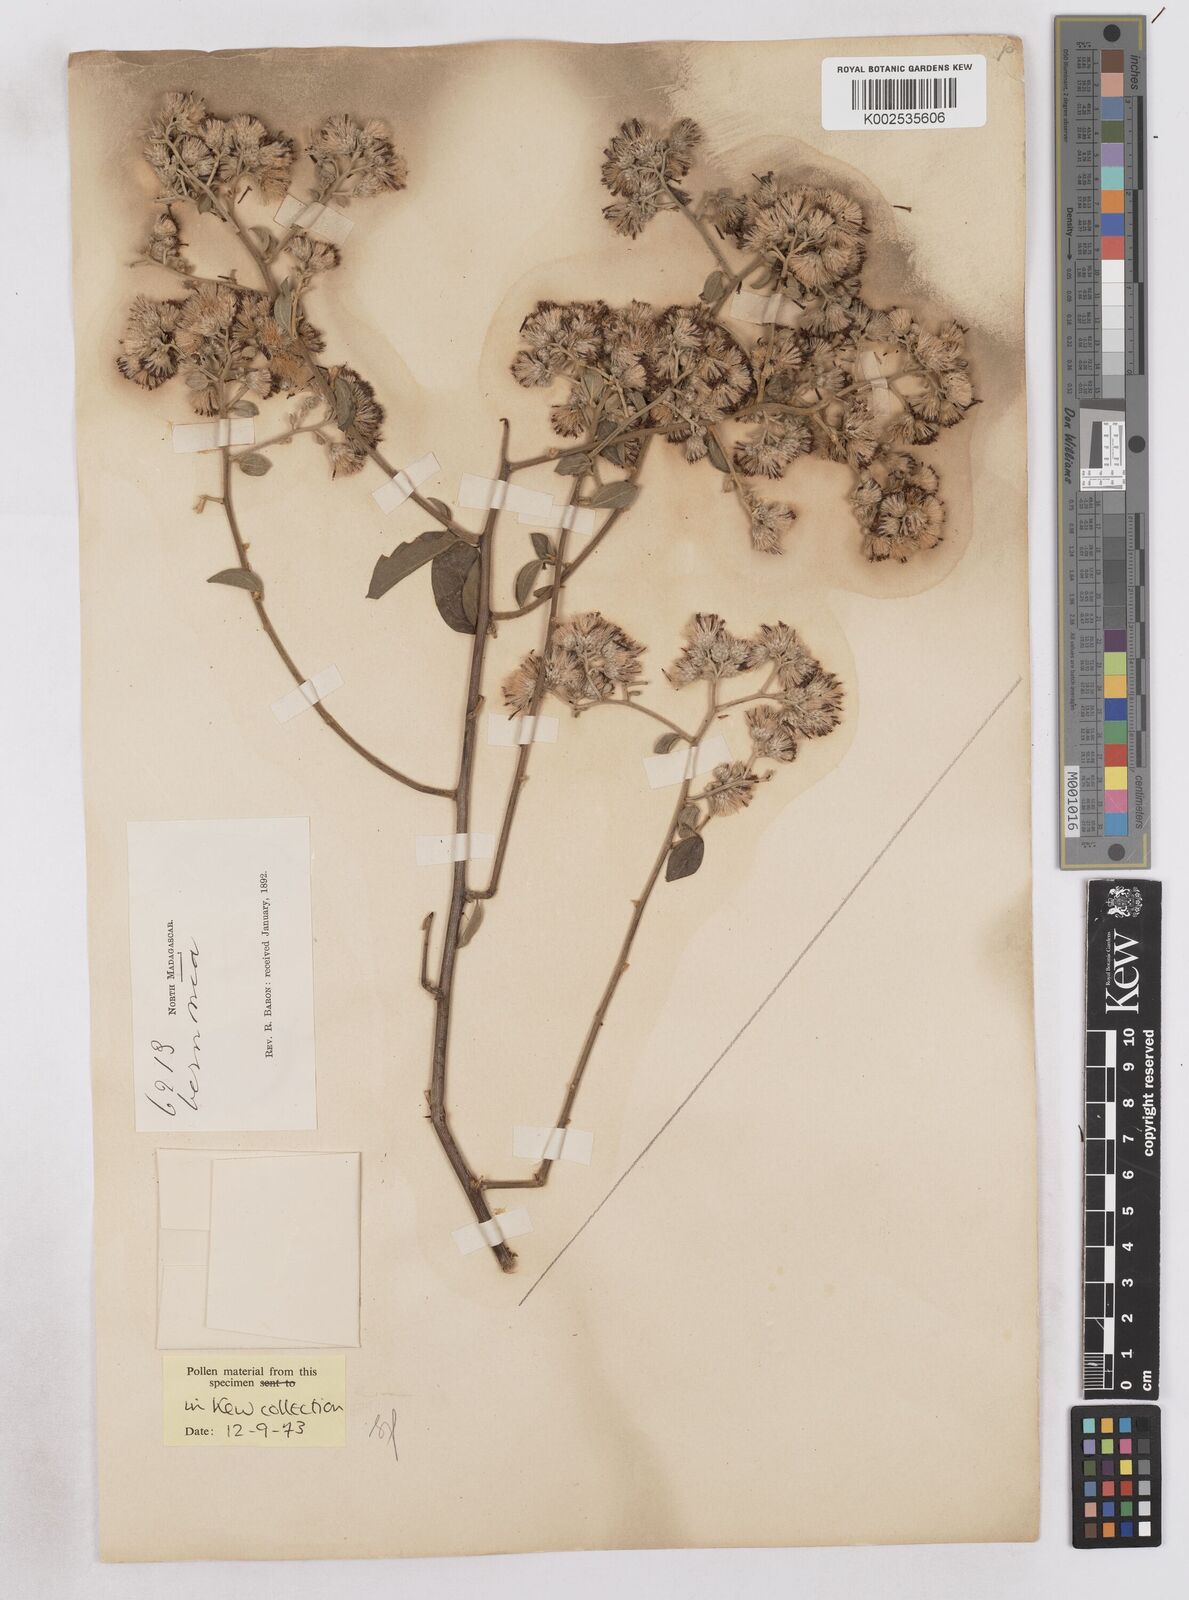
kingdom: Plantae
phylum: Tracheophyta
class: Magnoliopsida
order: Asterales
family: Asteraceae
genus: Distephanus
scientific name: Distephanus nummulariifolius
